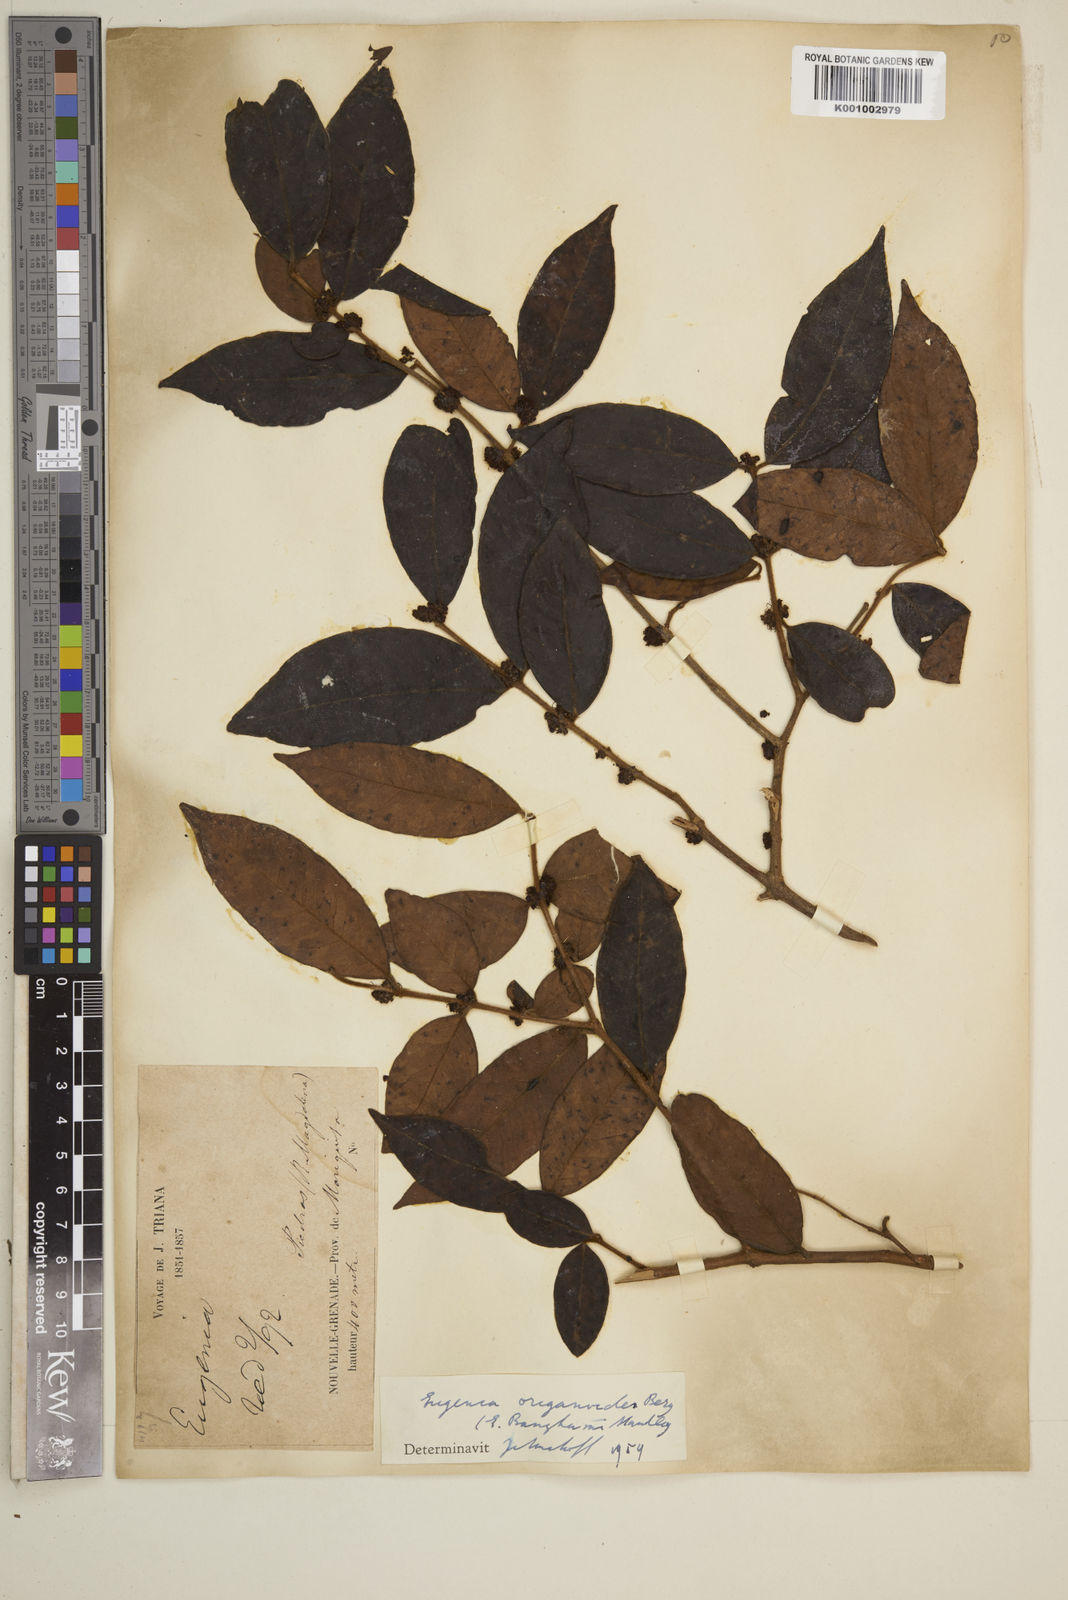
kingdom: Plantae
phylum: Tracheophyta
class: Magnoliopsida
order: Myrtales
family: Myrtaceae
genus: Eugenia
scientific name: Eugenia venezuelensis
